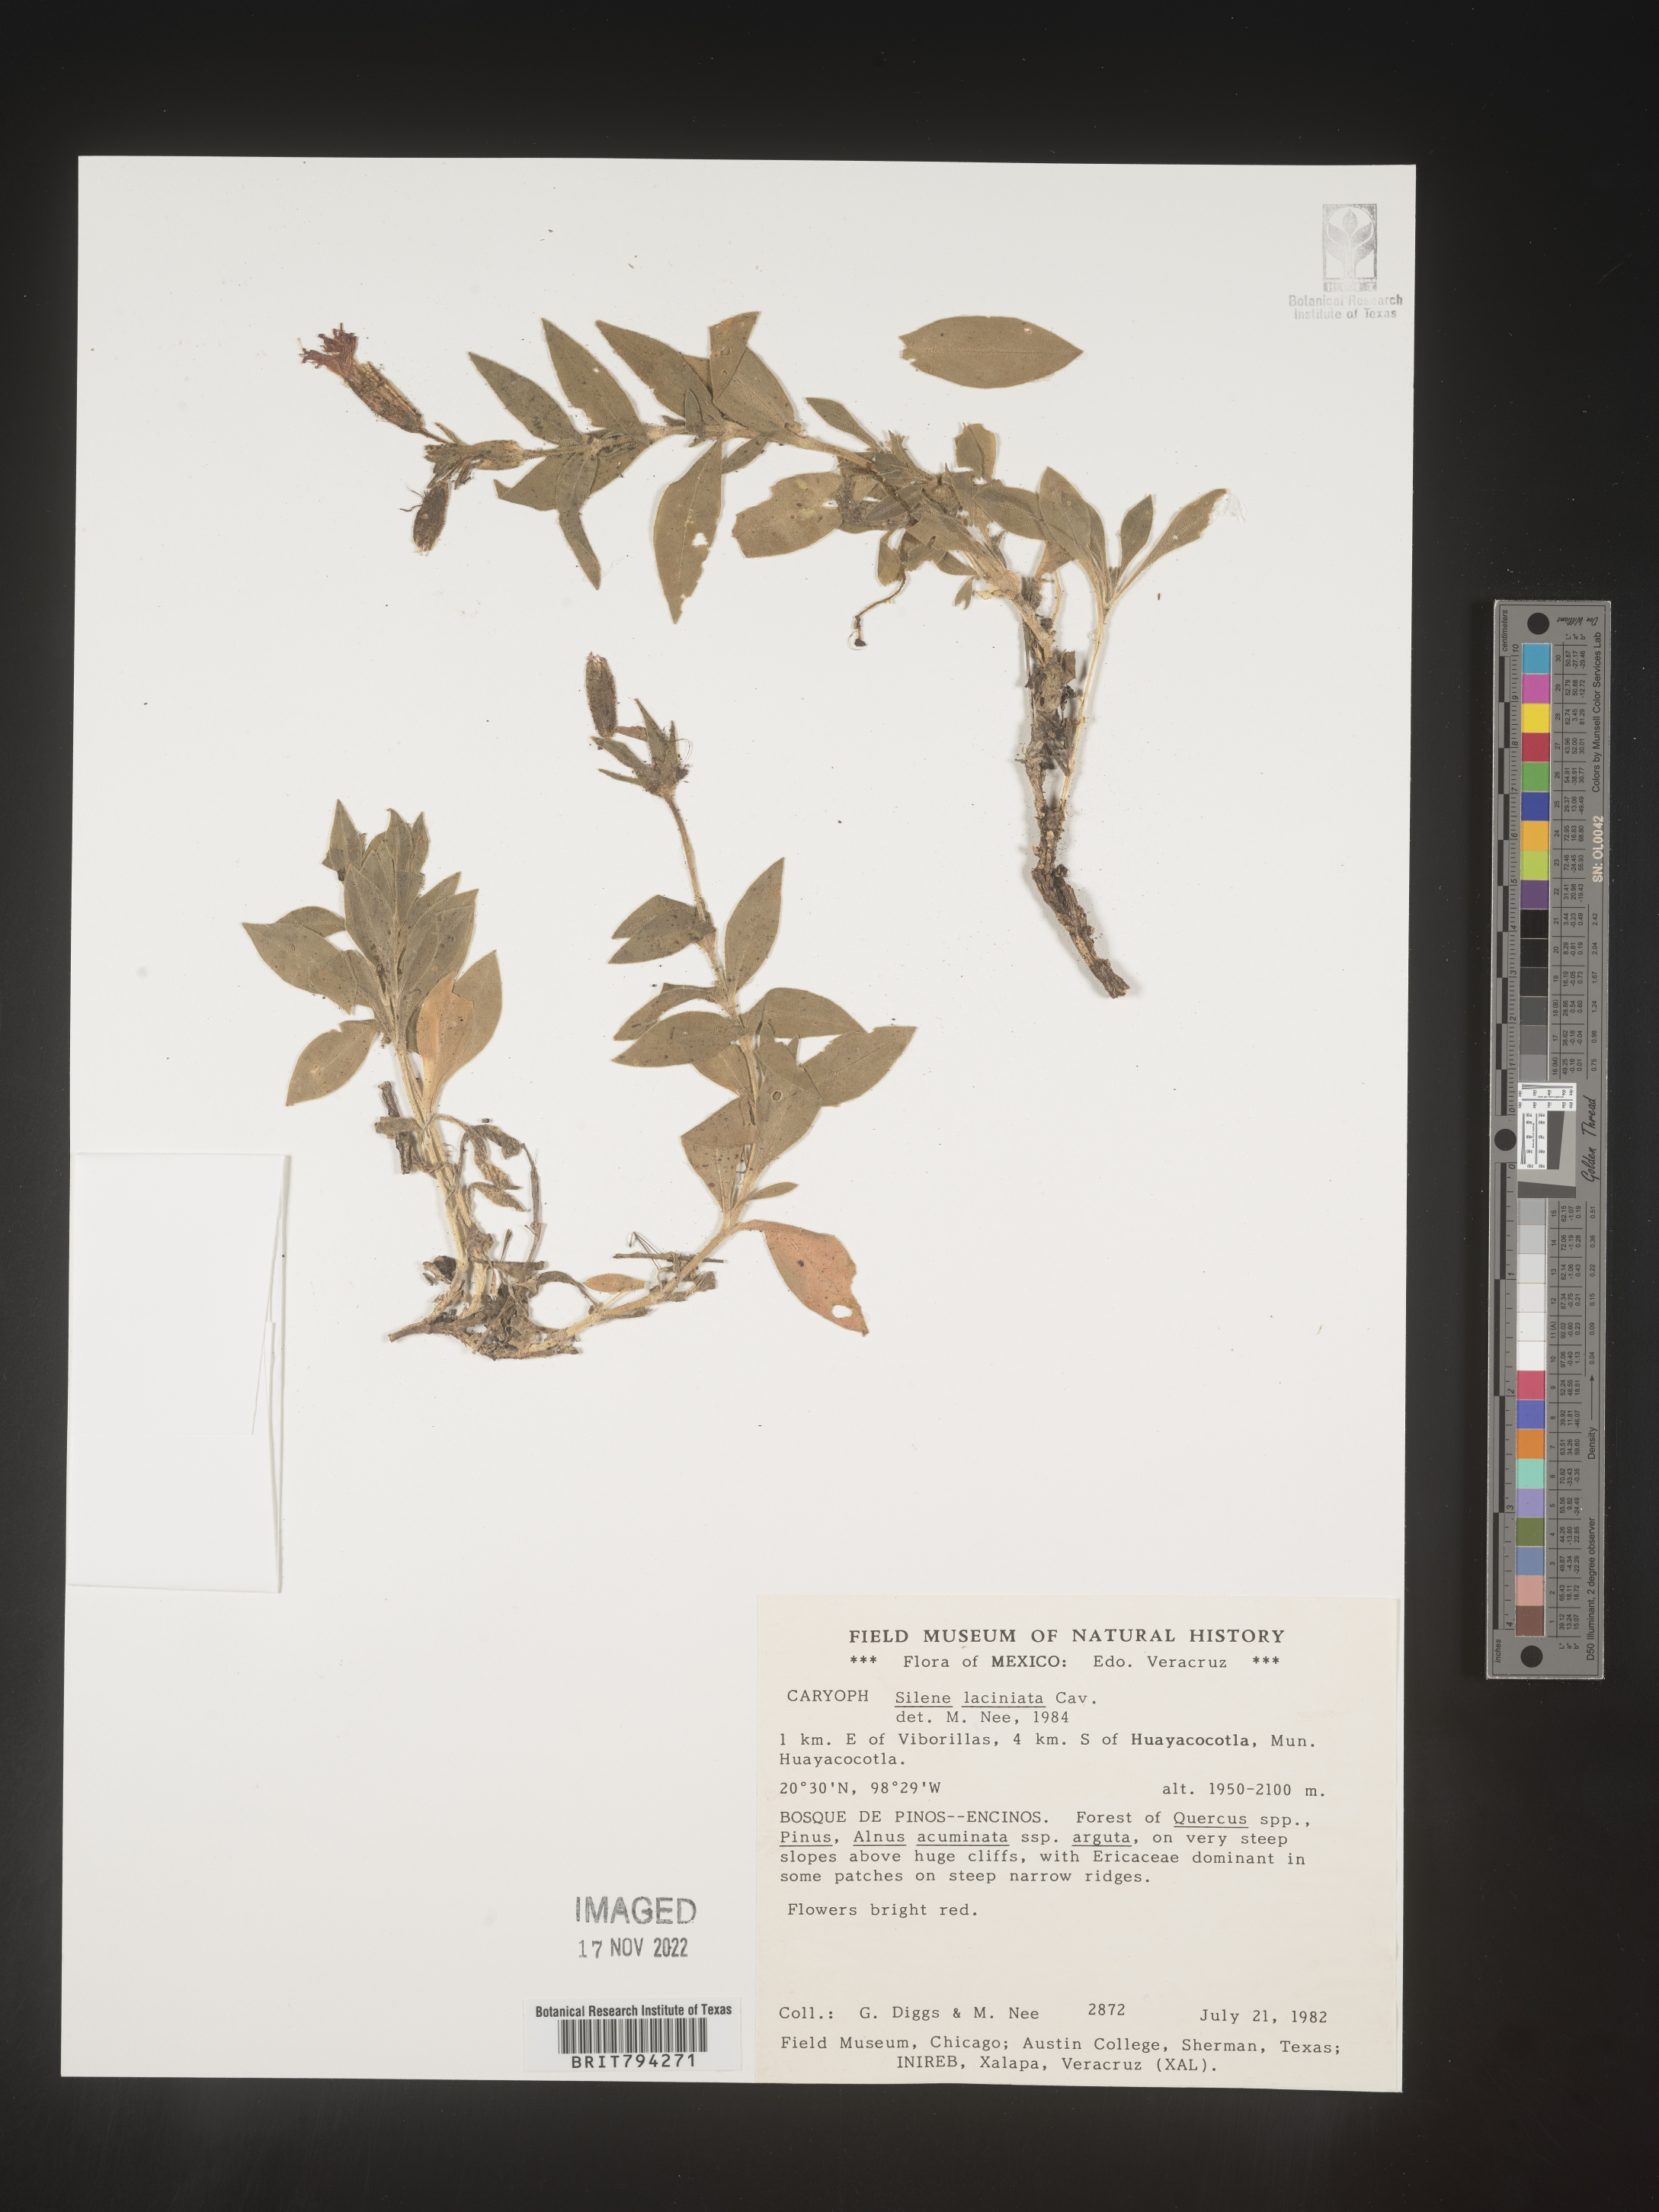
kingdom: Plantae
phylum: Tracheophyta
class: Magnoliopsida
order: Caryophyllales
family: Caryophyllaceae
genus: Silene
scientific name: Silene laciniata
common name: Indian-pink
